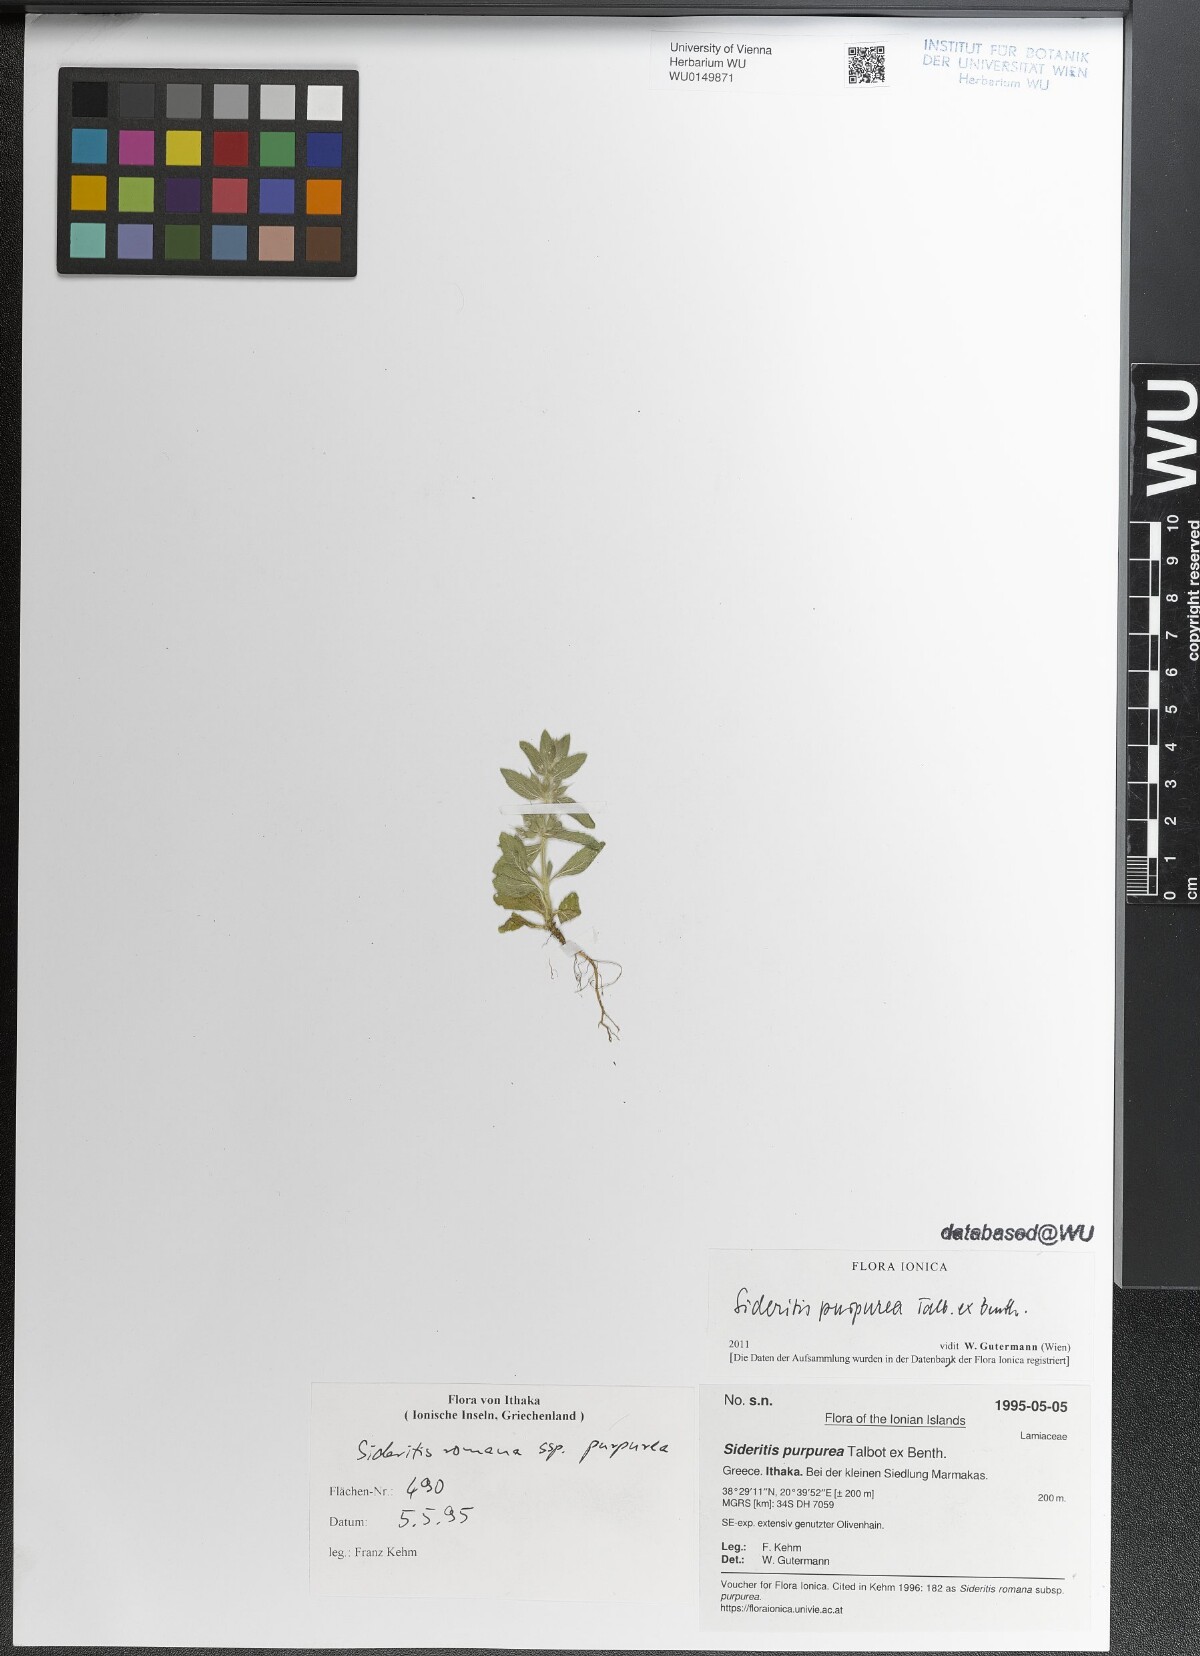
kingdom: Plantae
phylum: Tracheophyta
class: Magnoliopsida
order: Lamiales
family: Lamiaceae
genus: Sideritis
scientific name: Sideritis romana
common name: Simplebeak ironwort
